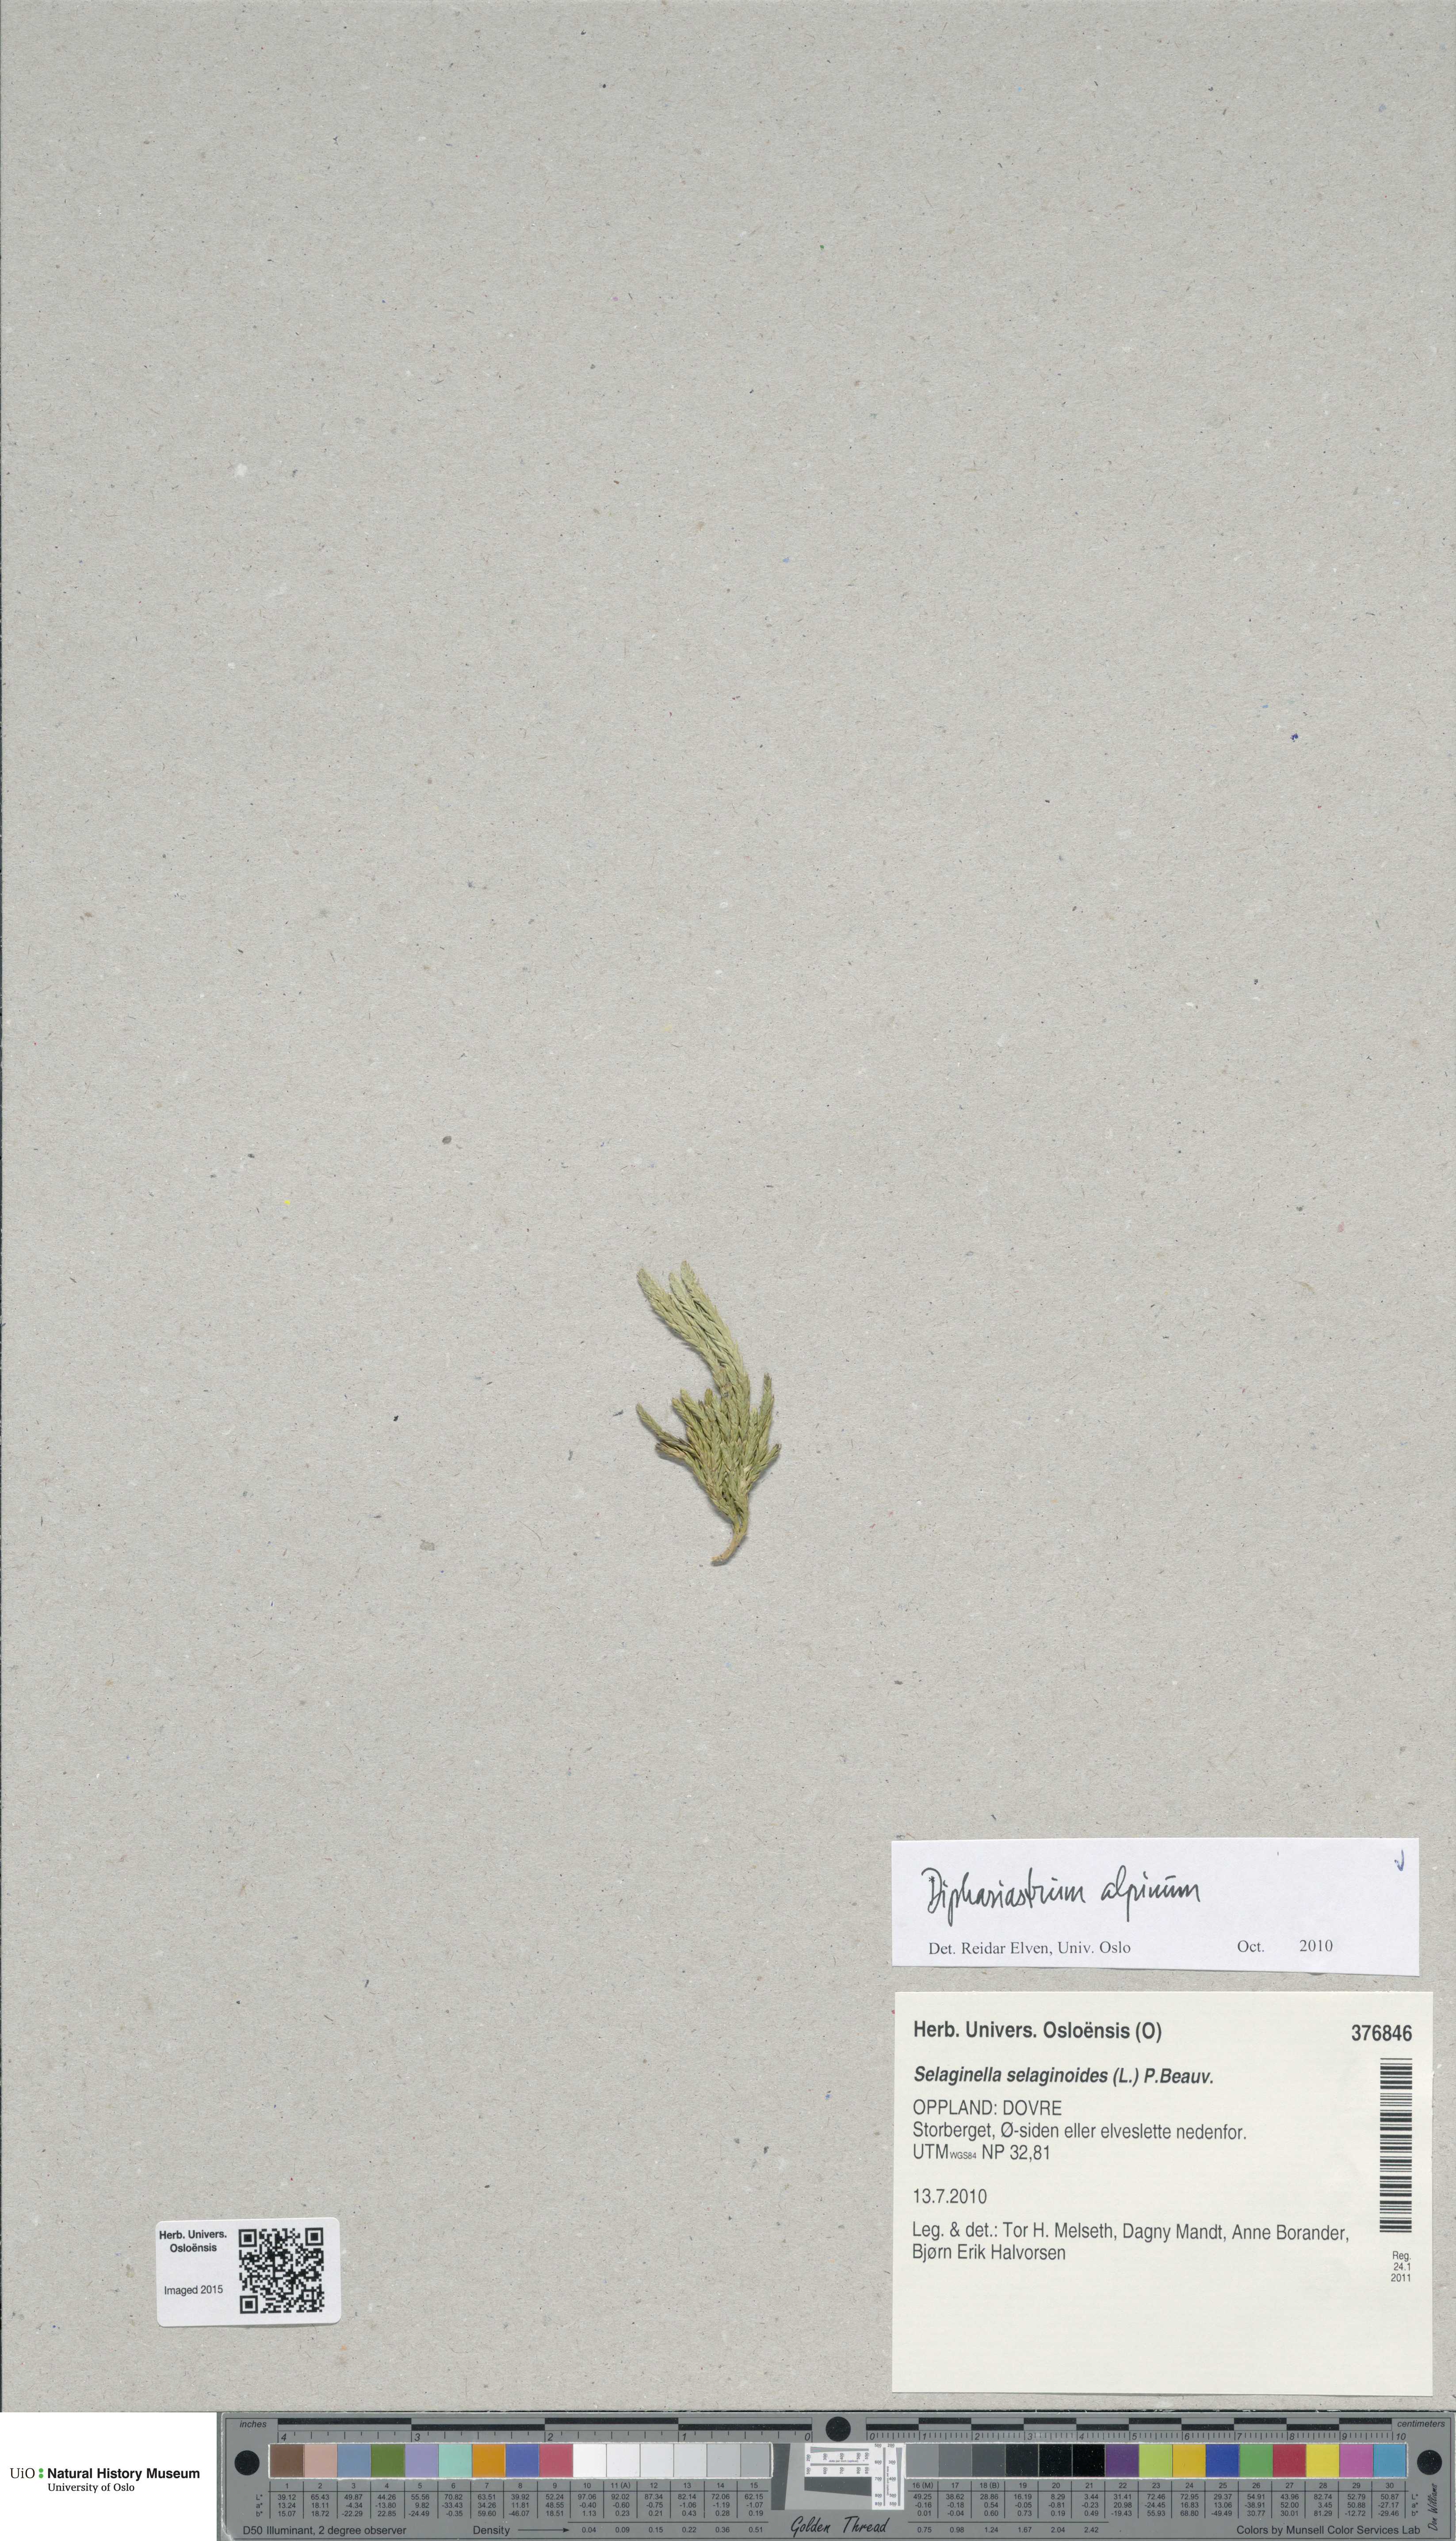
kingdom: Plantae
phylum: Tracheophyta
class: Lycopodiopsida
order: Lycopodiales
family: Lycopodiaceae
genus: Diphasiastrum
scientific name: Diphasiastrum alpinum
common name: Alpine clubmoss
